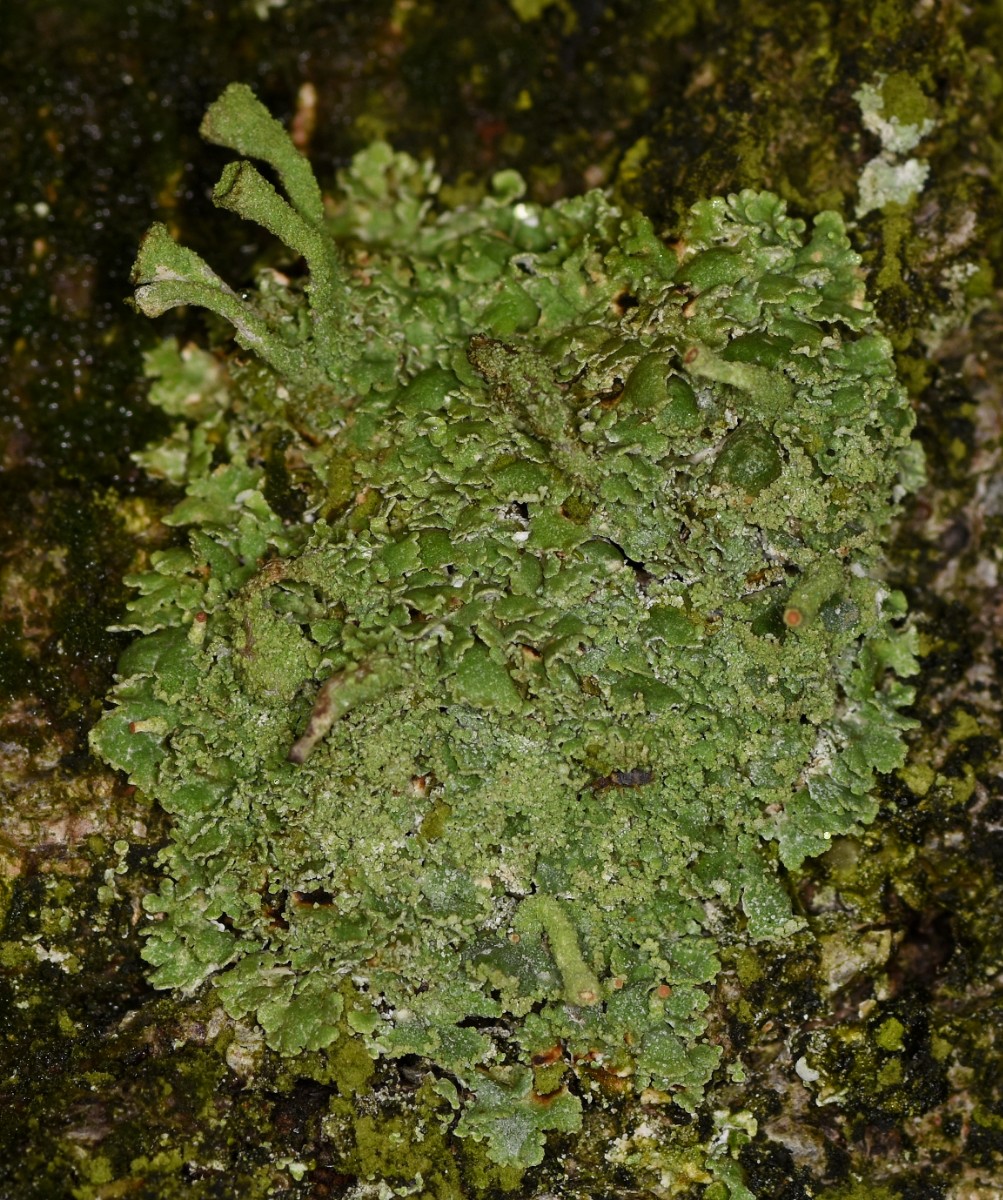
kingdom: Fungi
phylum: Ascomycota
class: Lecanoromycetes
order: Lecanorales
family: Cladoniaceae
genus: Cladonia
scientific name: Cladonia
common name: brungrøn bægerlav
